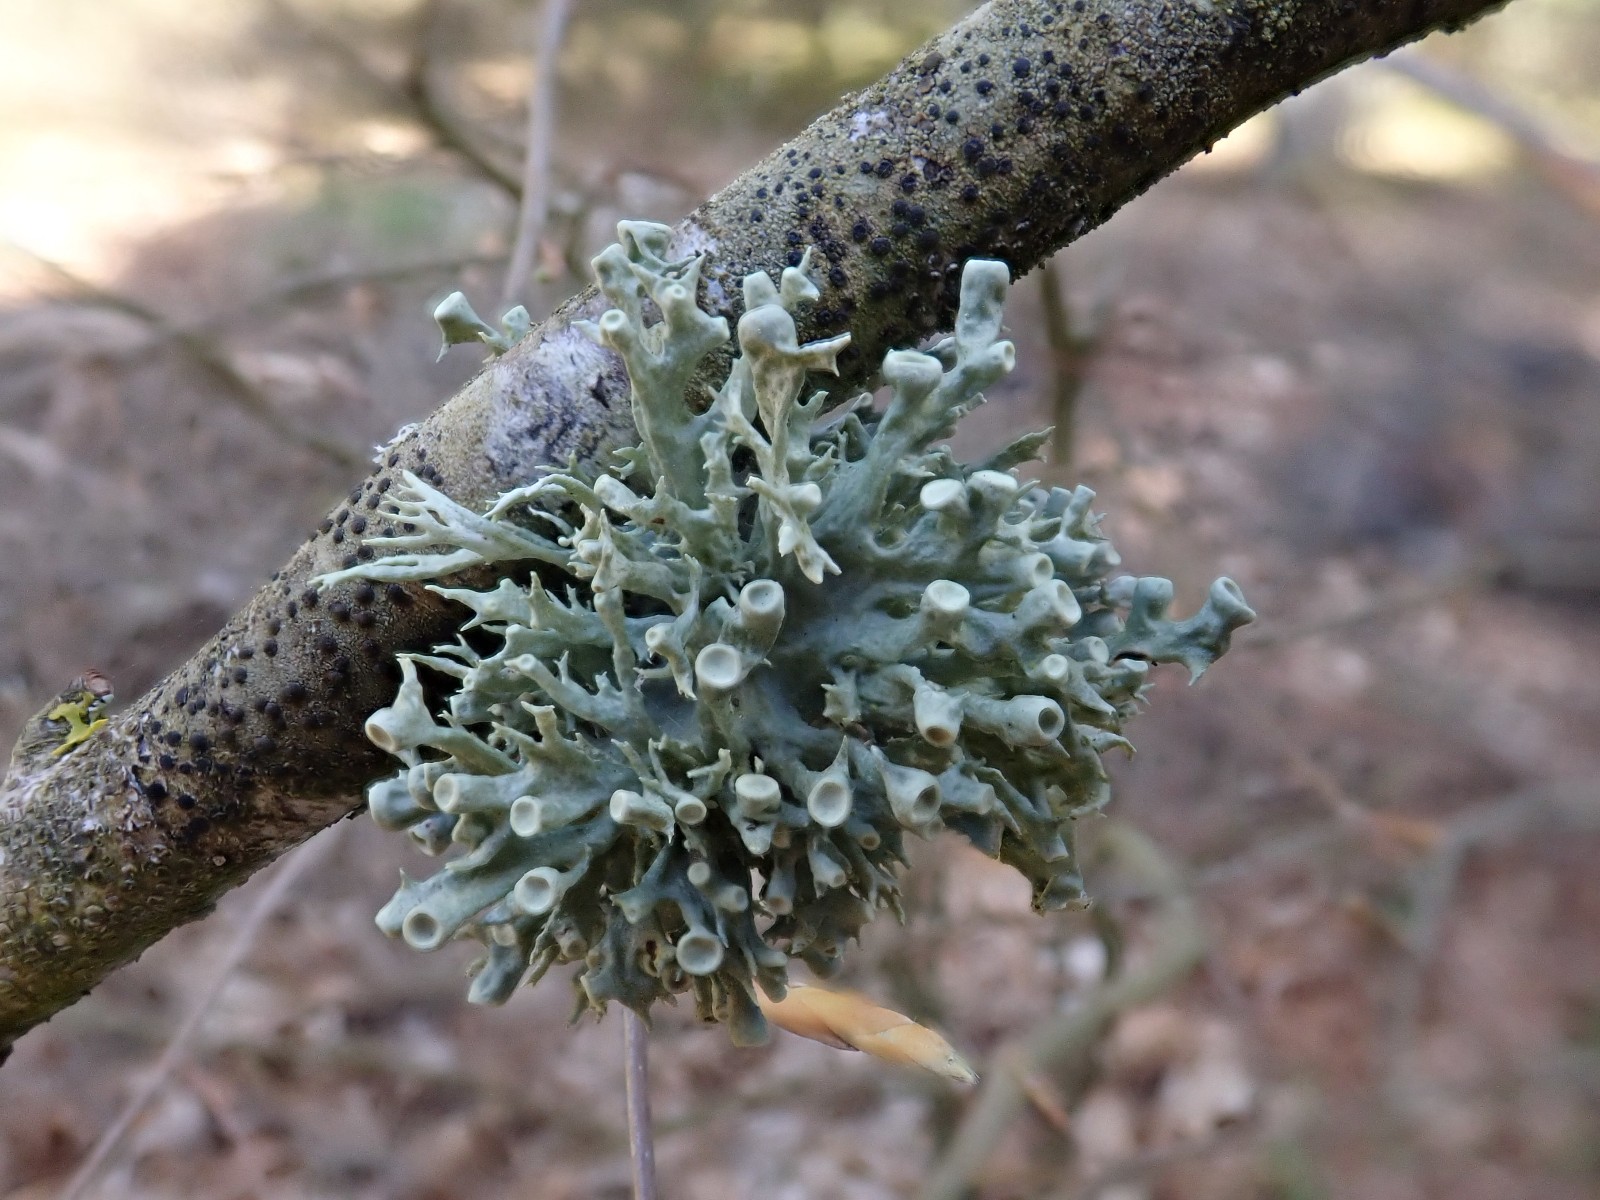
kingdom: Fungi
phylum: Ascomycota
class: Lecanoromycetes
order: Lecanorales
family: Ramalinaceae
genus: Ramalina
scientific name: Ramalina fastigiata
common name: tue-grenlav
